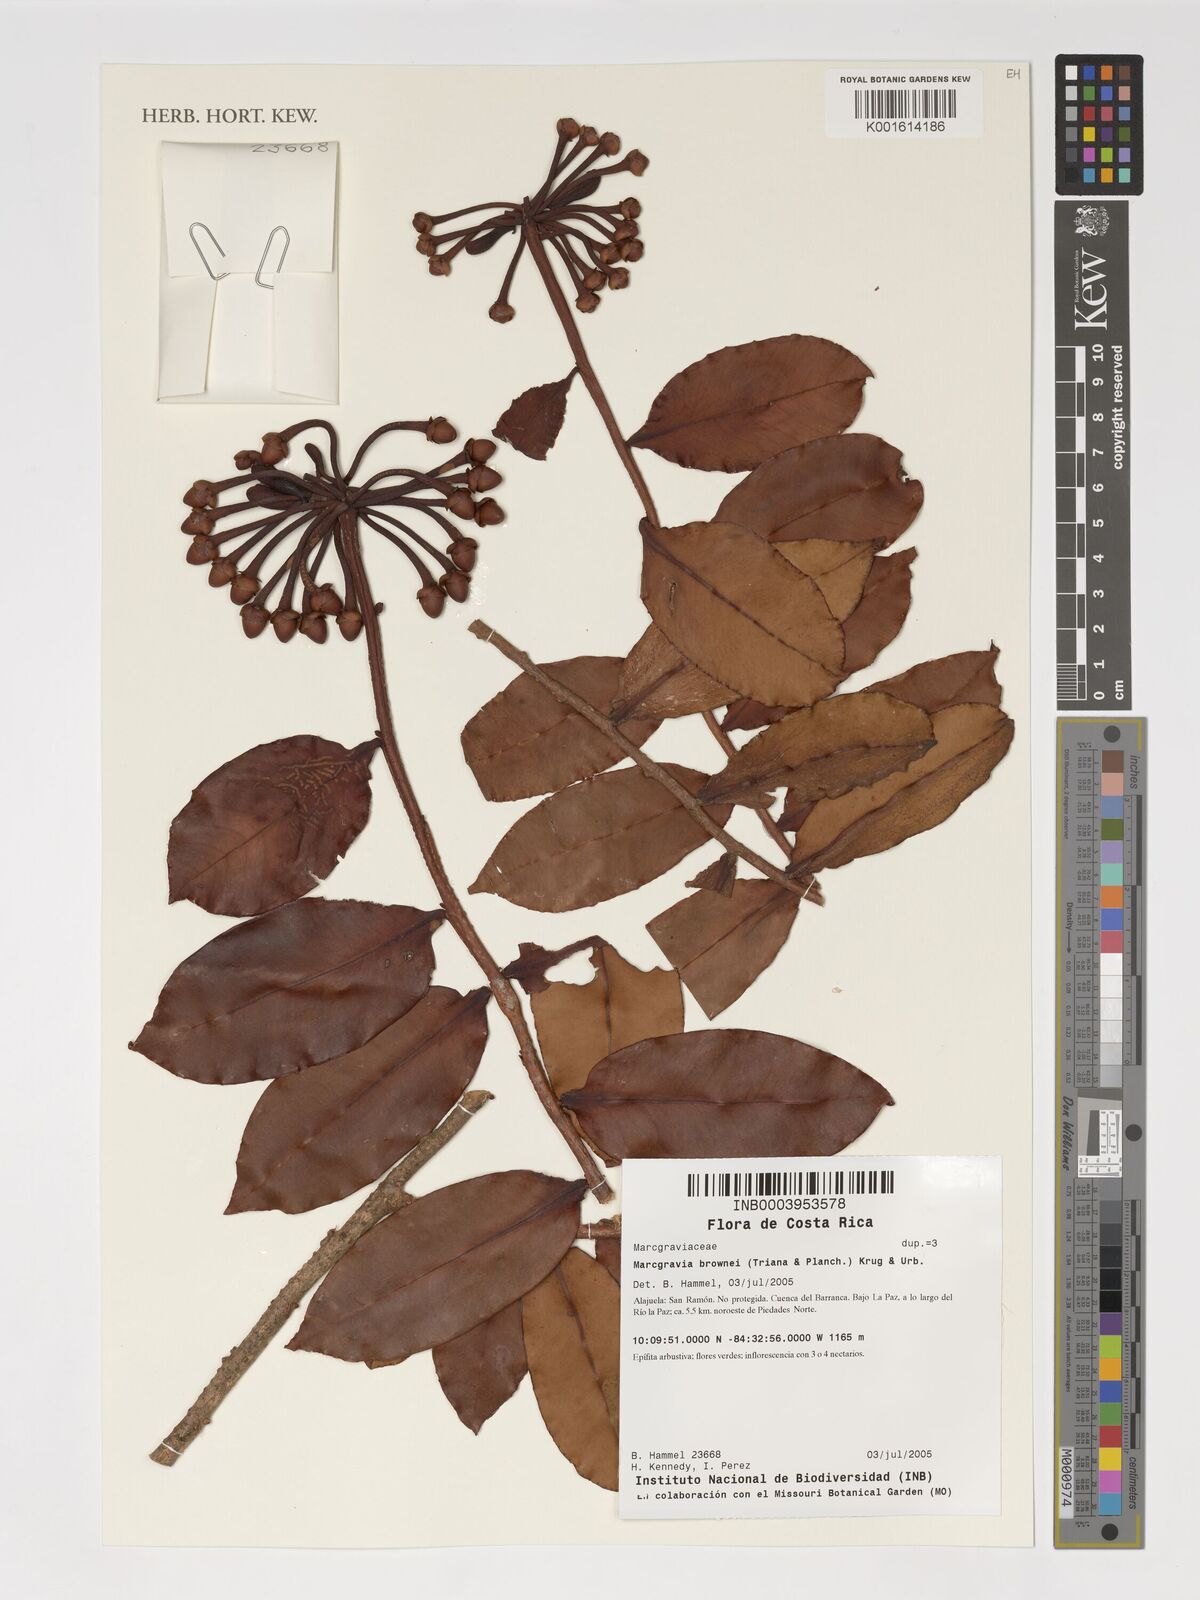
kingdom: Plantae
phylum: Tracheophyta
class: Magnoliopsida
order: Ericales
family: Marcgraviaceae
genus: Marcgravia
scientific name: Marcgravia brownei
